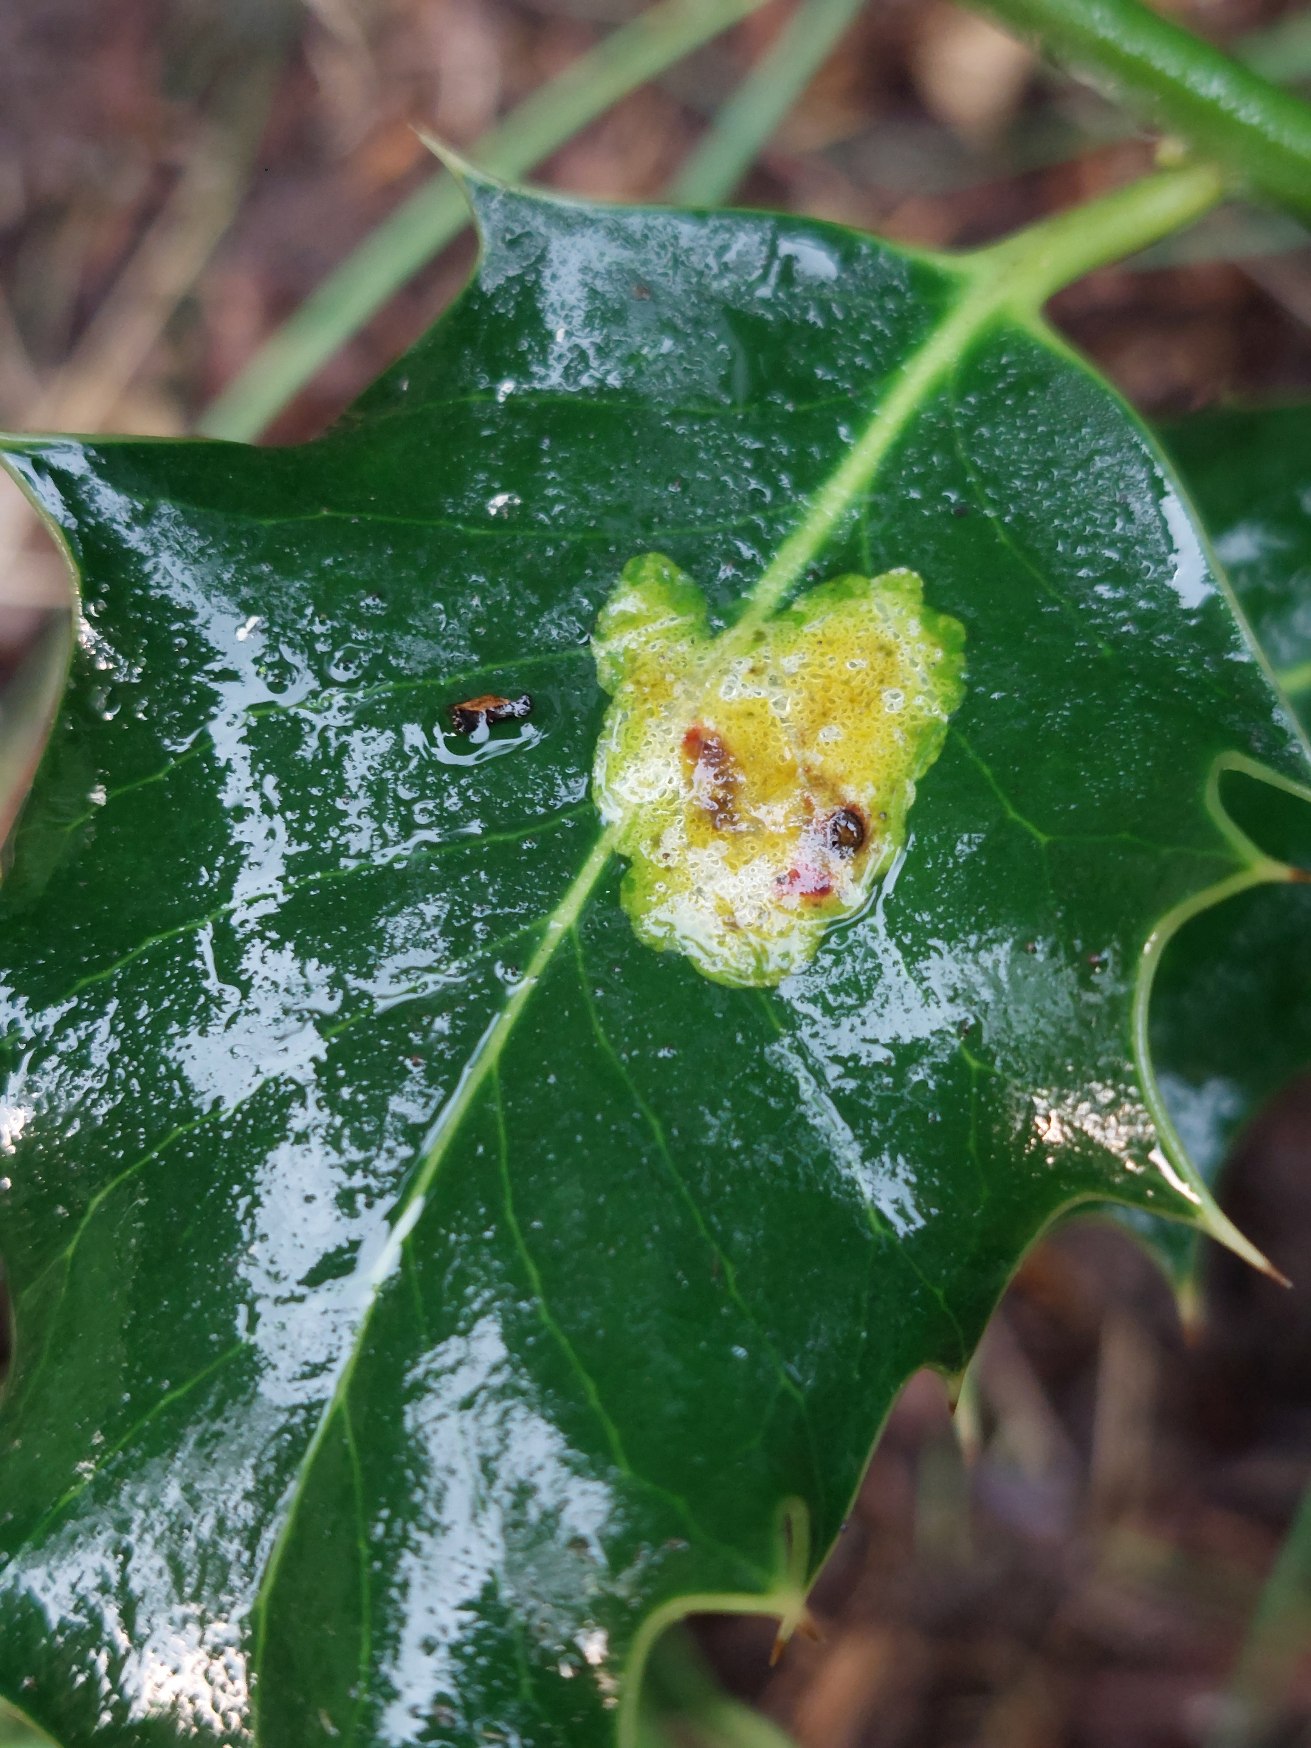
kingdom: Animalia
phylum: Arthropoda
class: Insecta
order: Diptera
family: Agromyzidae
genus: Phytomyza
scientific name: Phytomyza ilicis
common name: Kristtornminérflue
